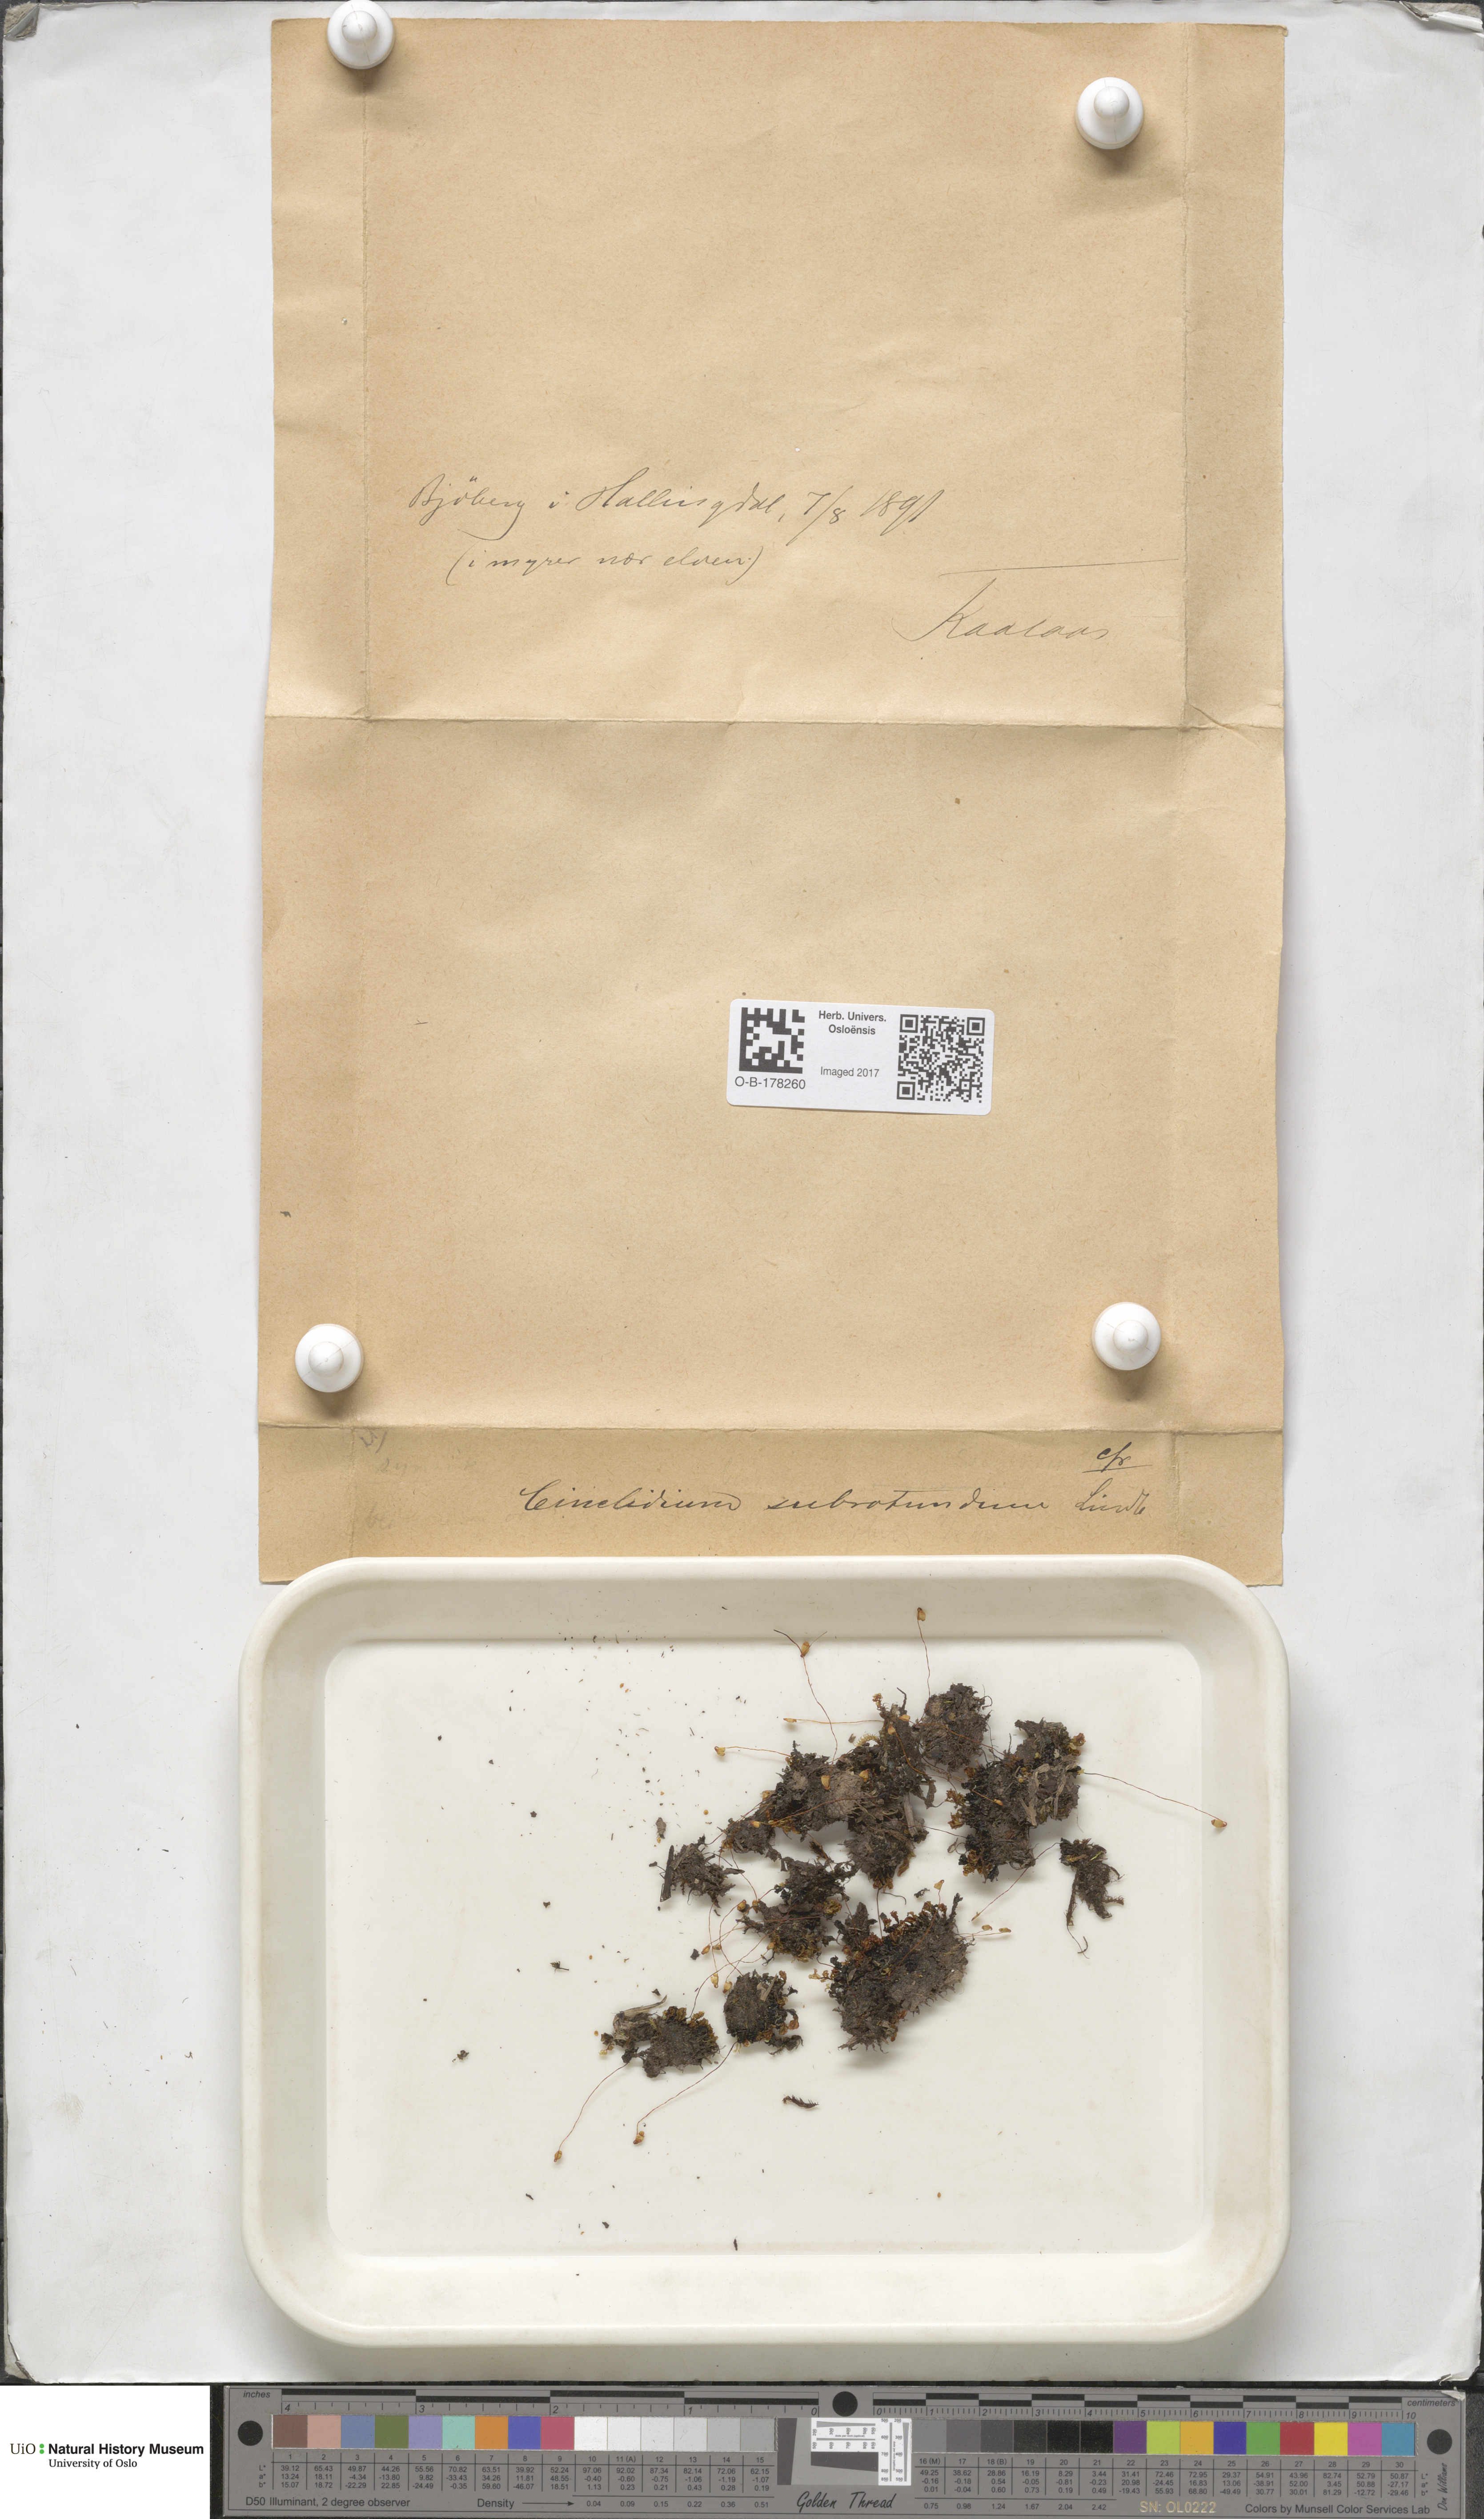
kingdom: Plantae
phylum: Bryophyta
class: Bryopsida
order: Bryales
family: Mniaceae
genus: Cinclidium
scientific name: Cinclidium subrotundum
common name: Ovate cupola moss
